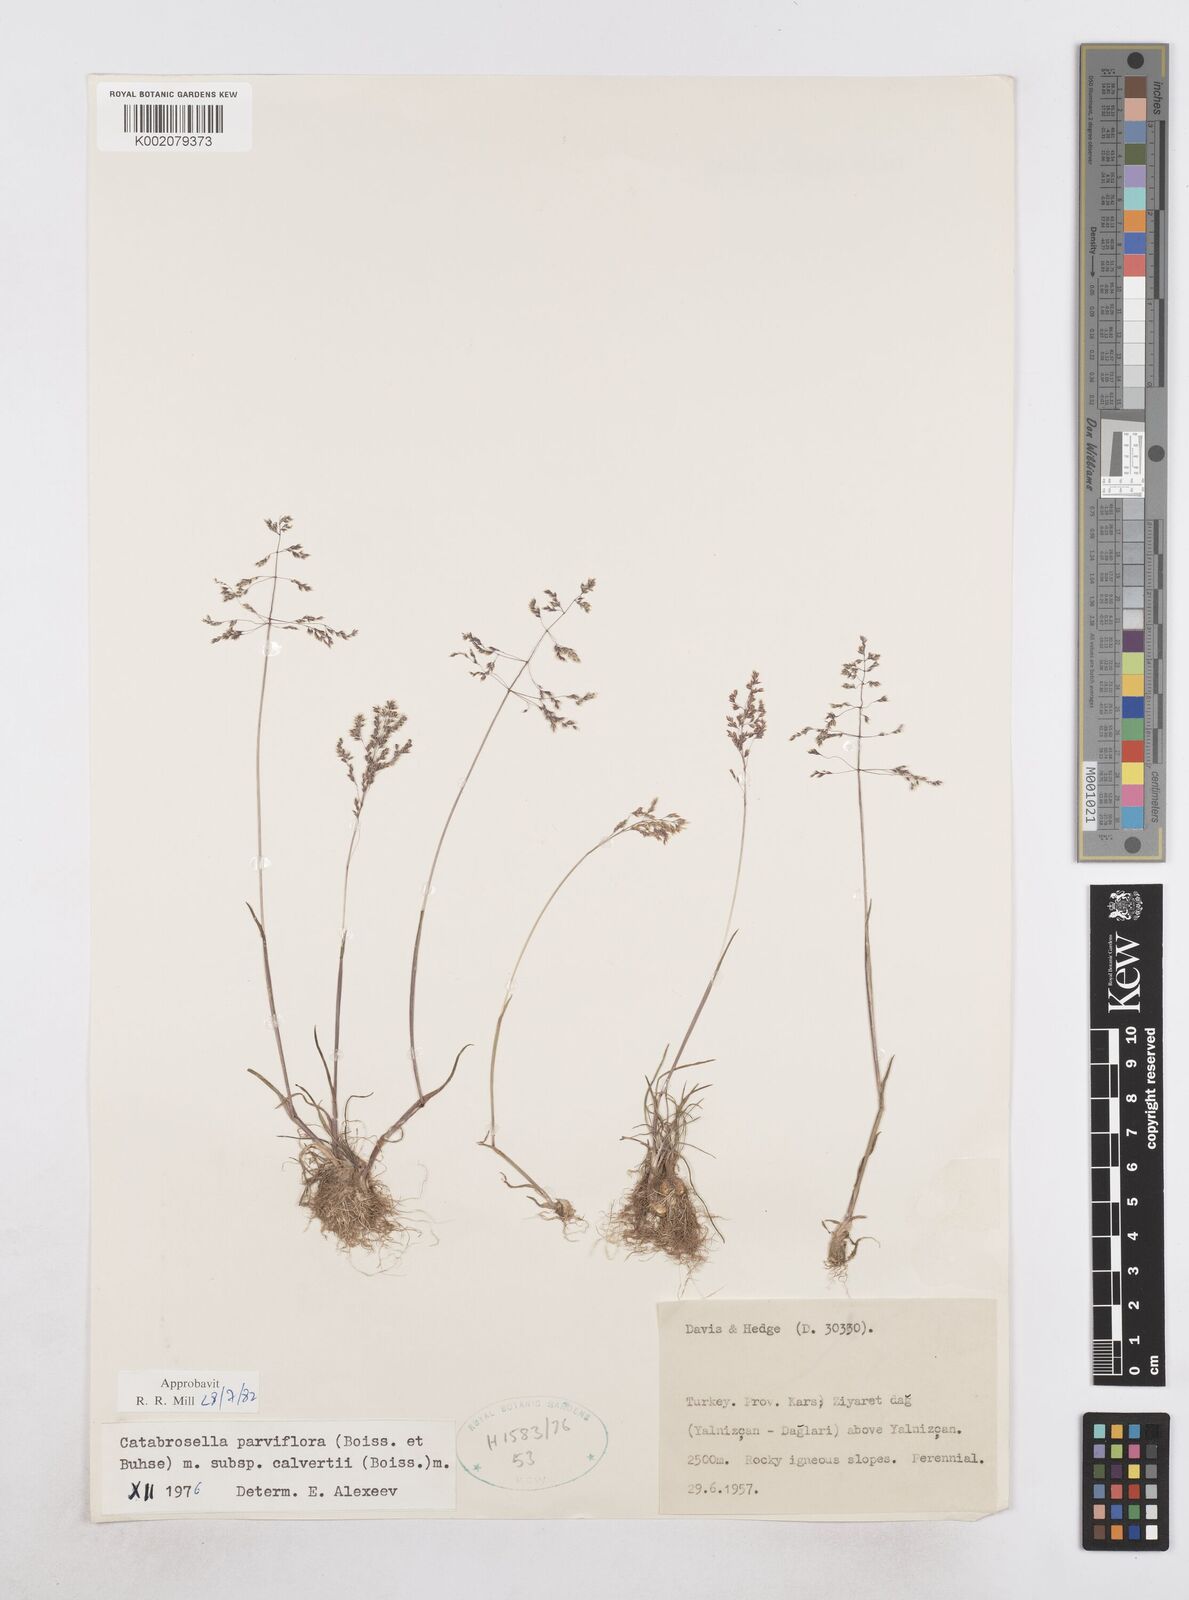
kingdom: Plantae
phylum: Tracheophyta
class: Liliopsida
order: Poales
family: Poaceae
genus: Catabrosella
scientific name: Catabrosella humilis
